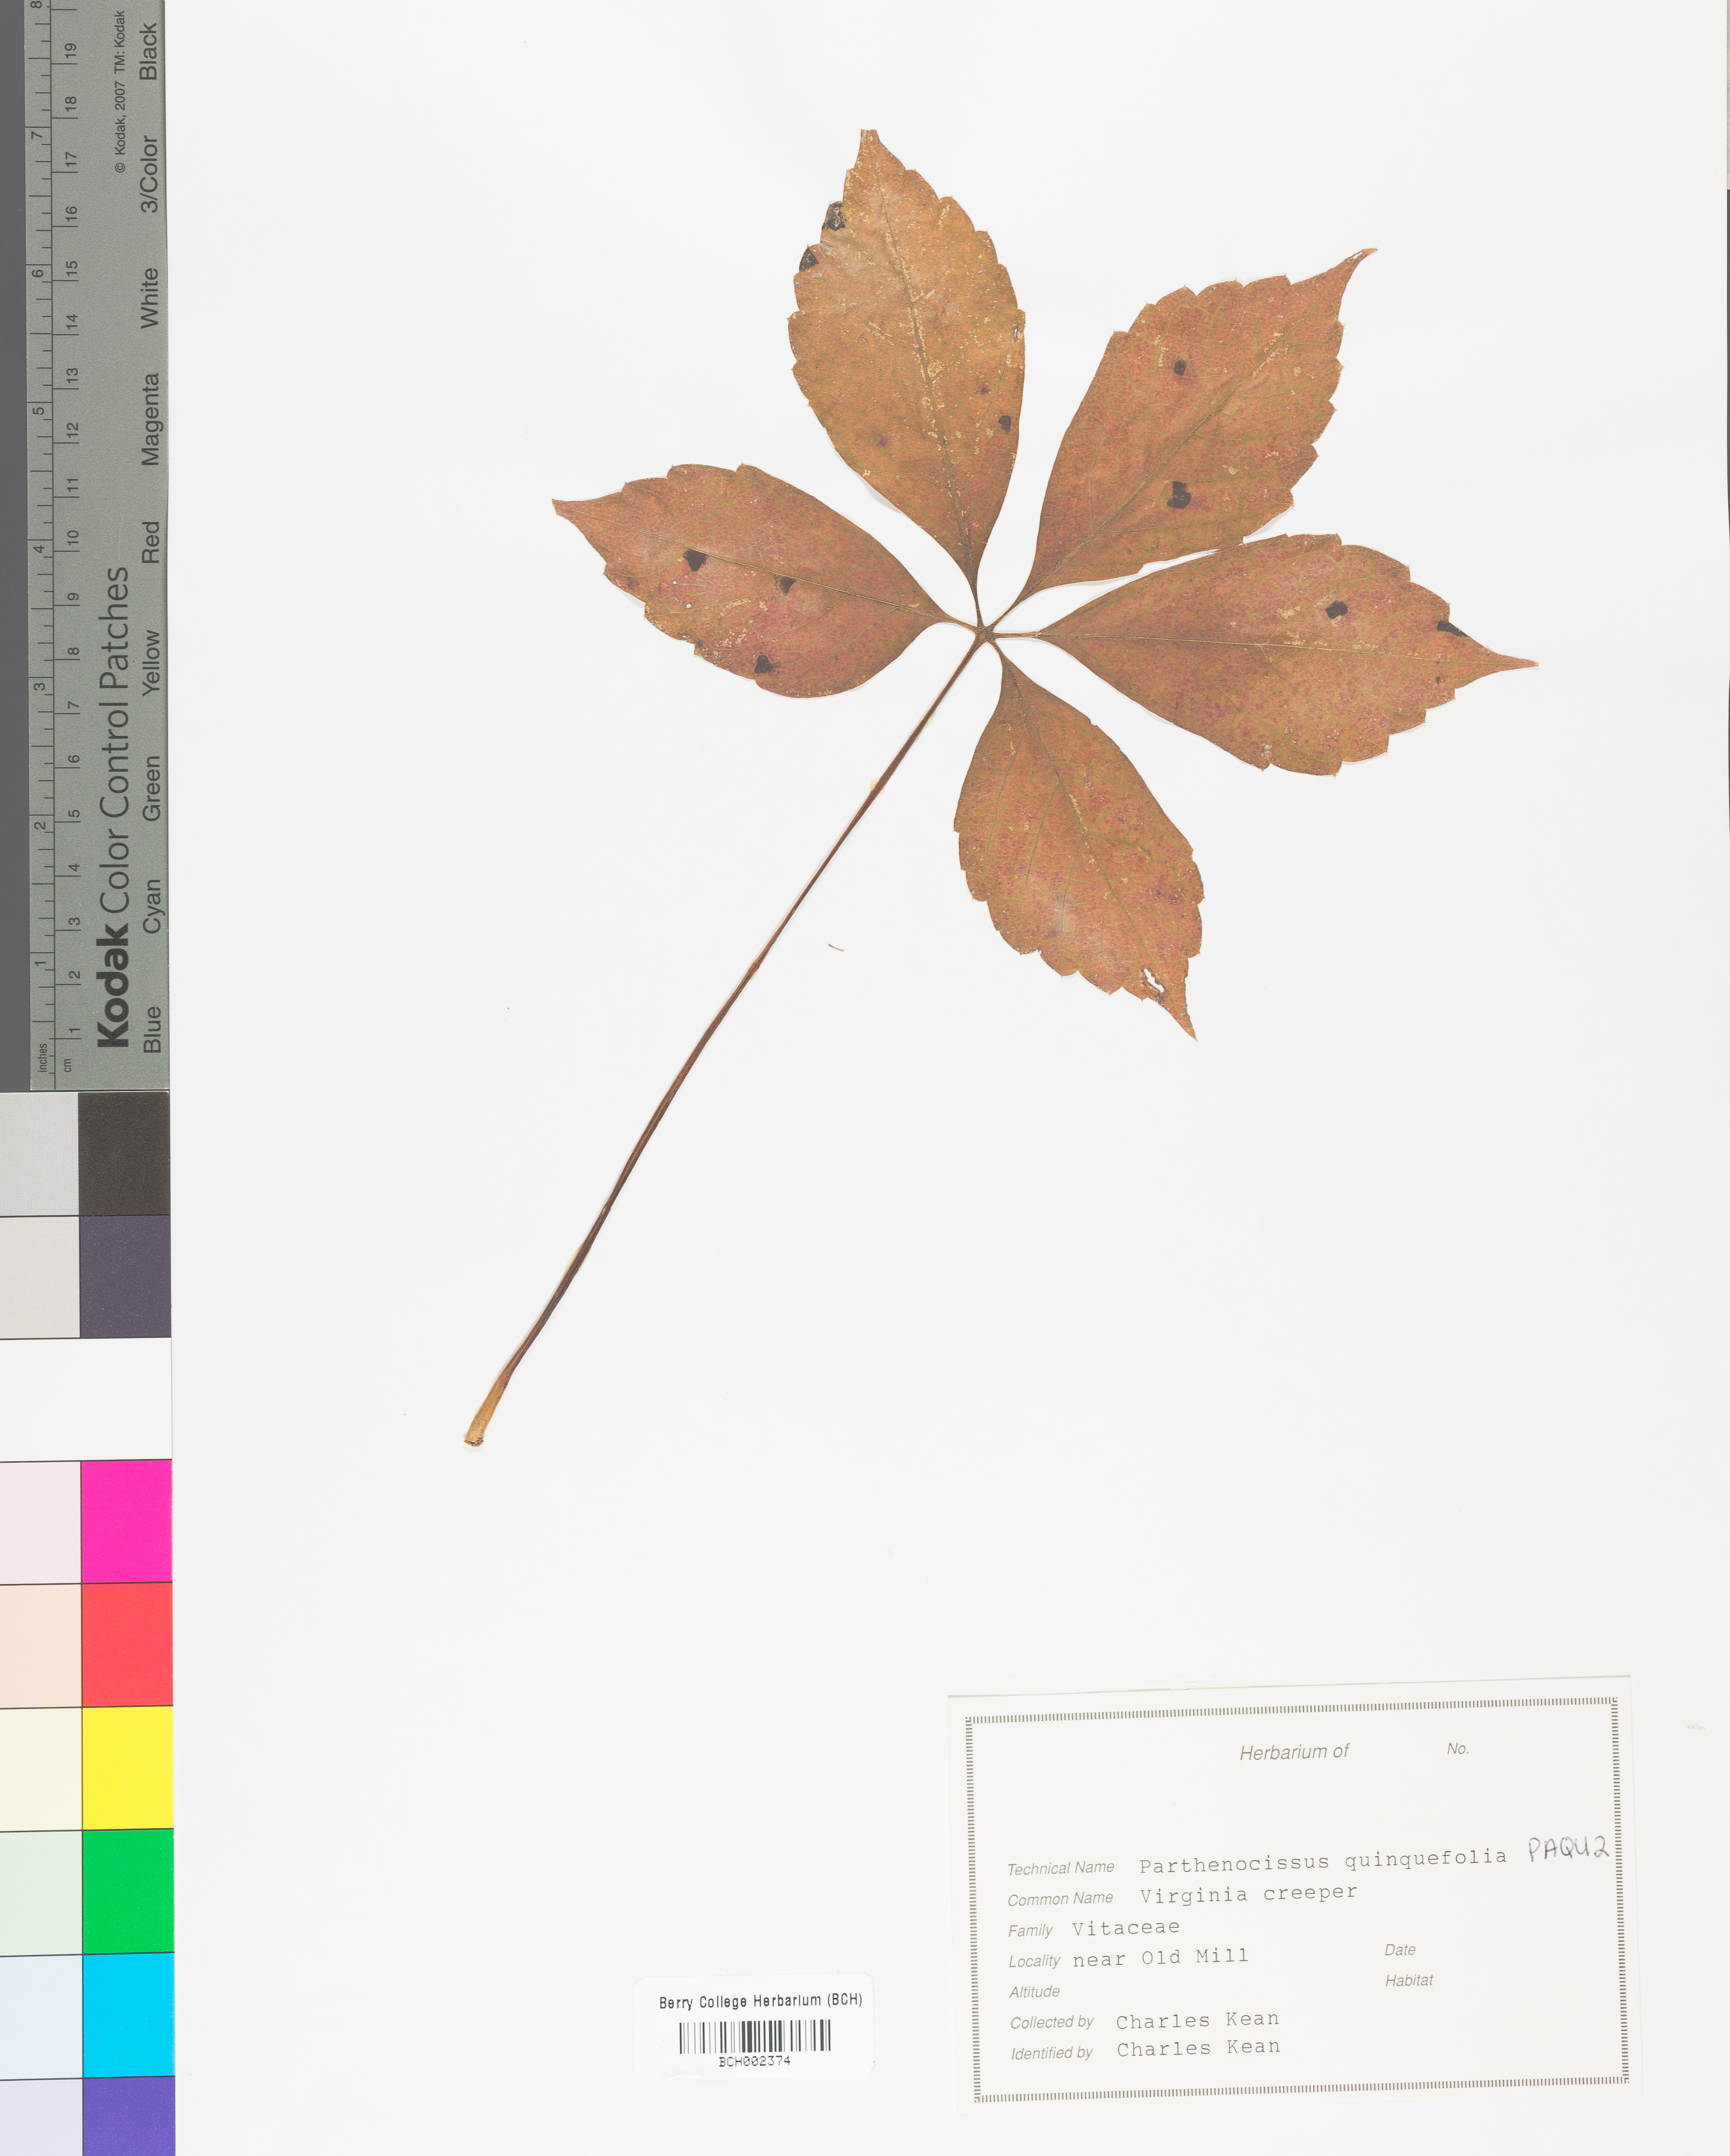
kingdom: Plantae
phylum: Tracheophyta
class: Magnoliopsida
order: Vitales
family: Vitaceae
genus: Parthenocissus
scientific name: Parthenocissus quinquefolia
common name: Virginia-creeper
